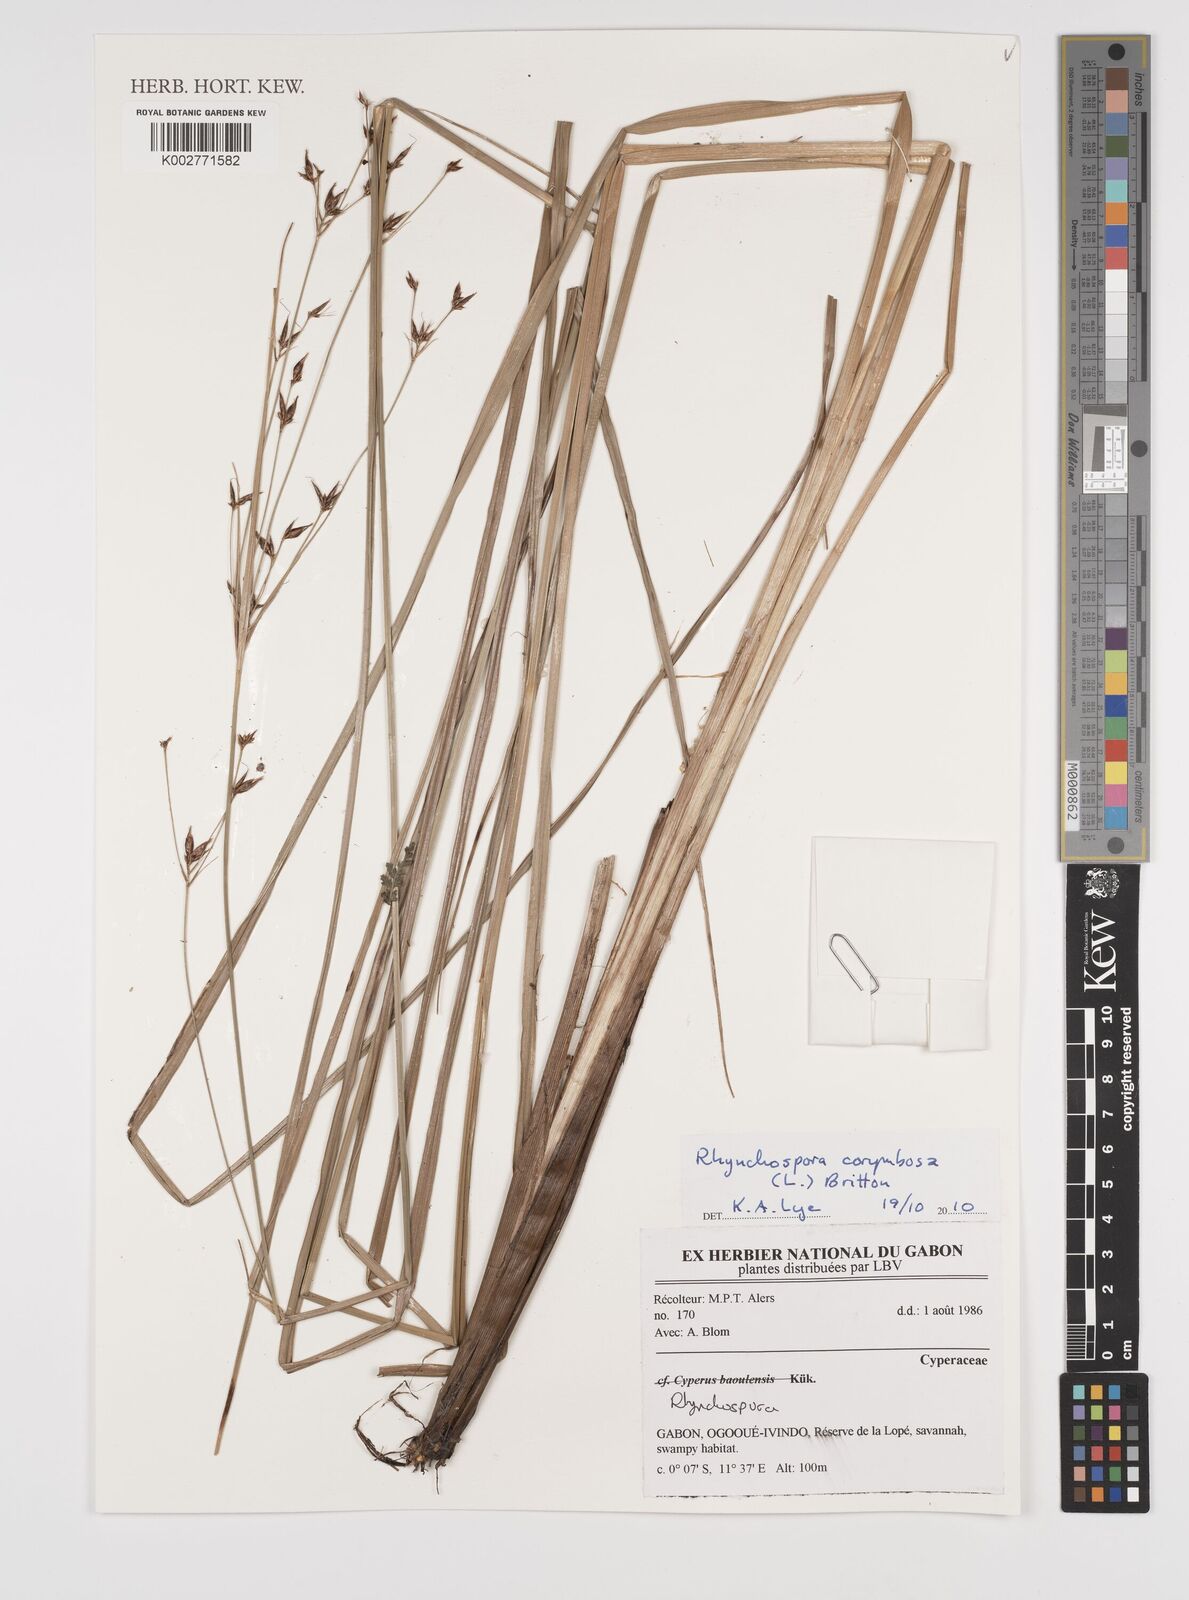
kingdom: Plantae
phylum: Tracheophyta
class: Liliopsida
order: Poales
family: Cyperaceae
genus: Rhynchospora
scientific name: Rhynchospora corymbosa
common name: Golden beak sedge
